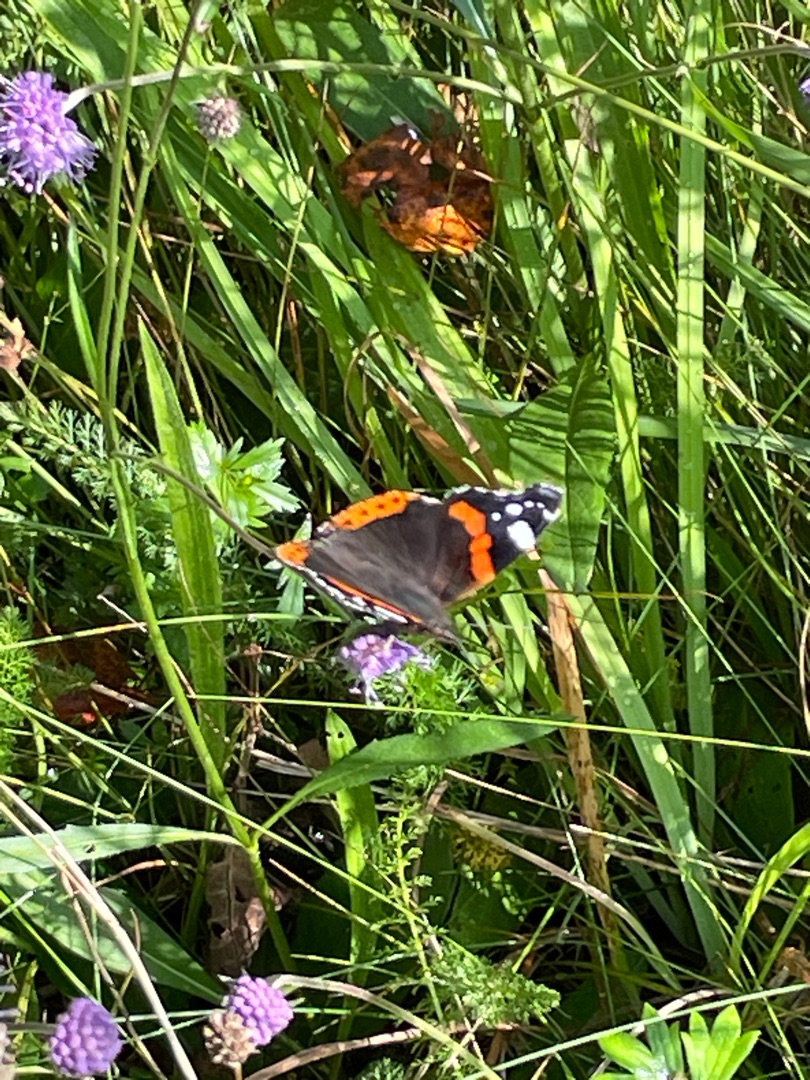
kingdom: Animalia
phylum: Arthropoda
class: Insecta
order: Lepidoptera
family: Nymphalidae
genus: Vanessa
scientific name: Vanessa atalanta
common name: Admiral
